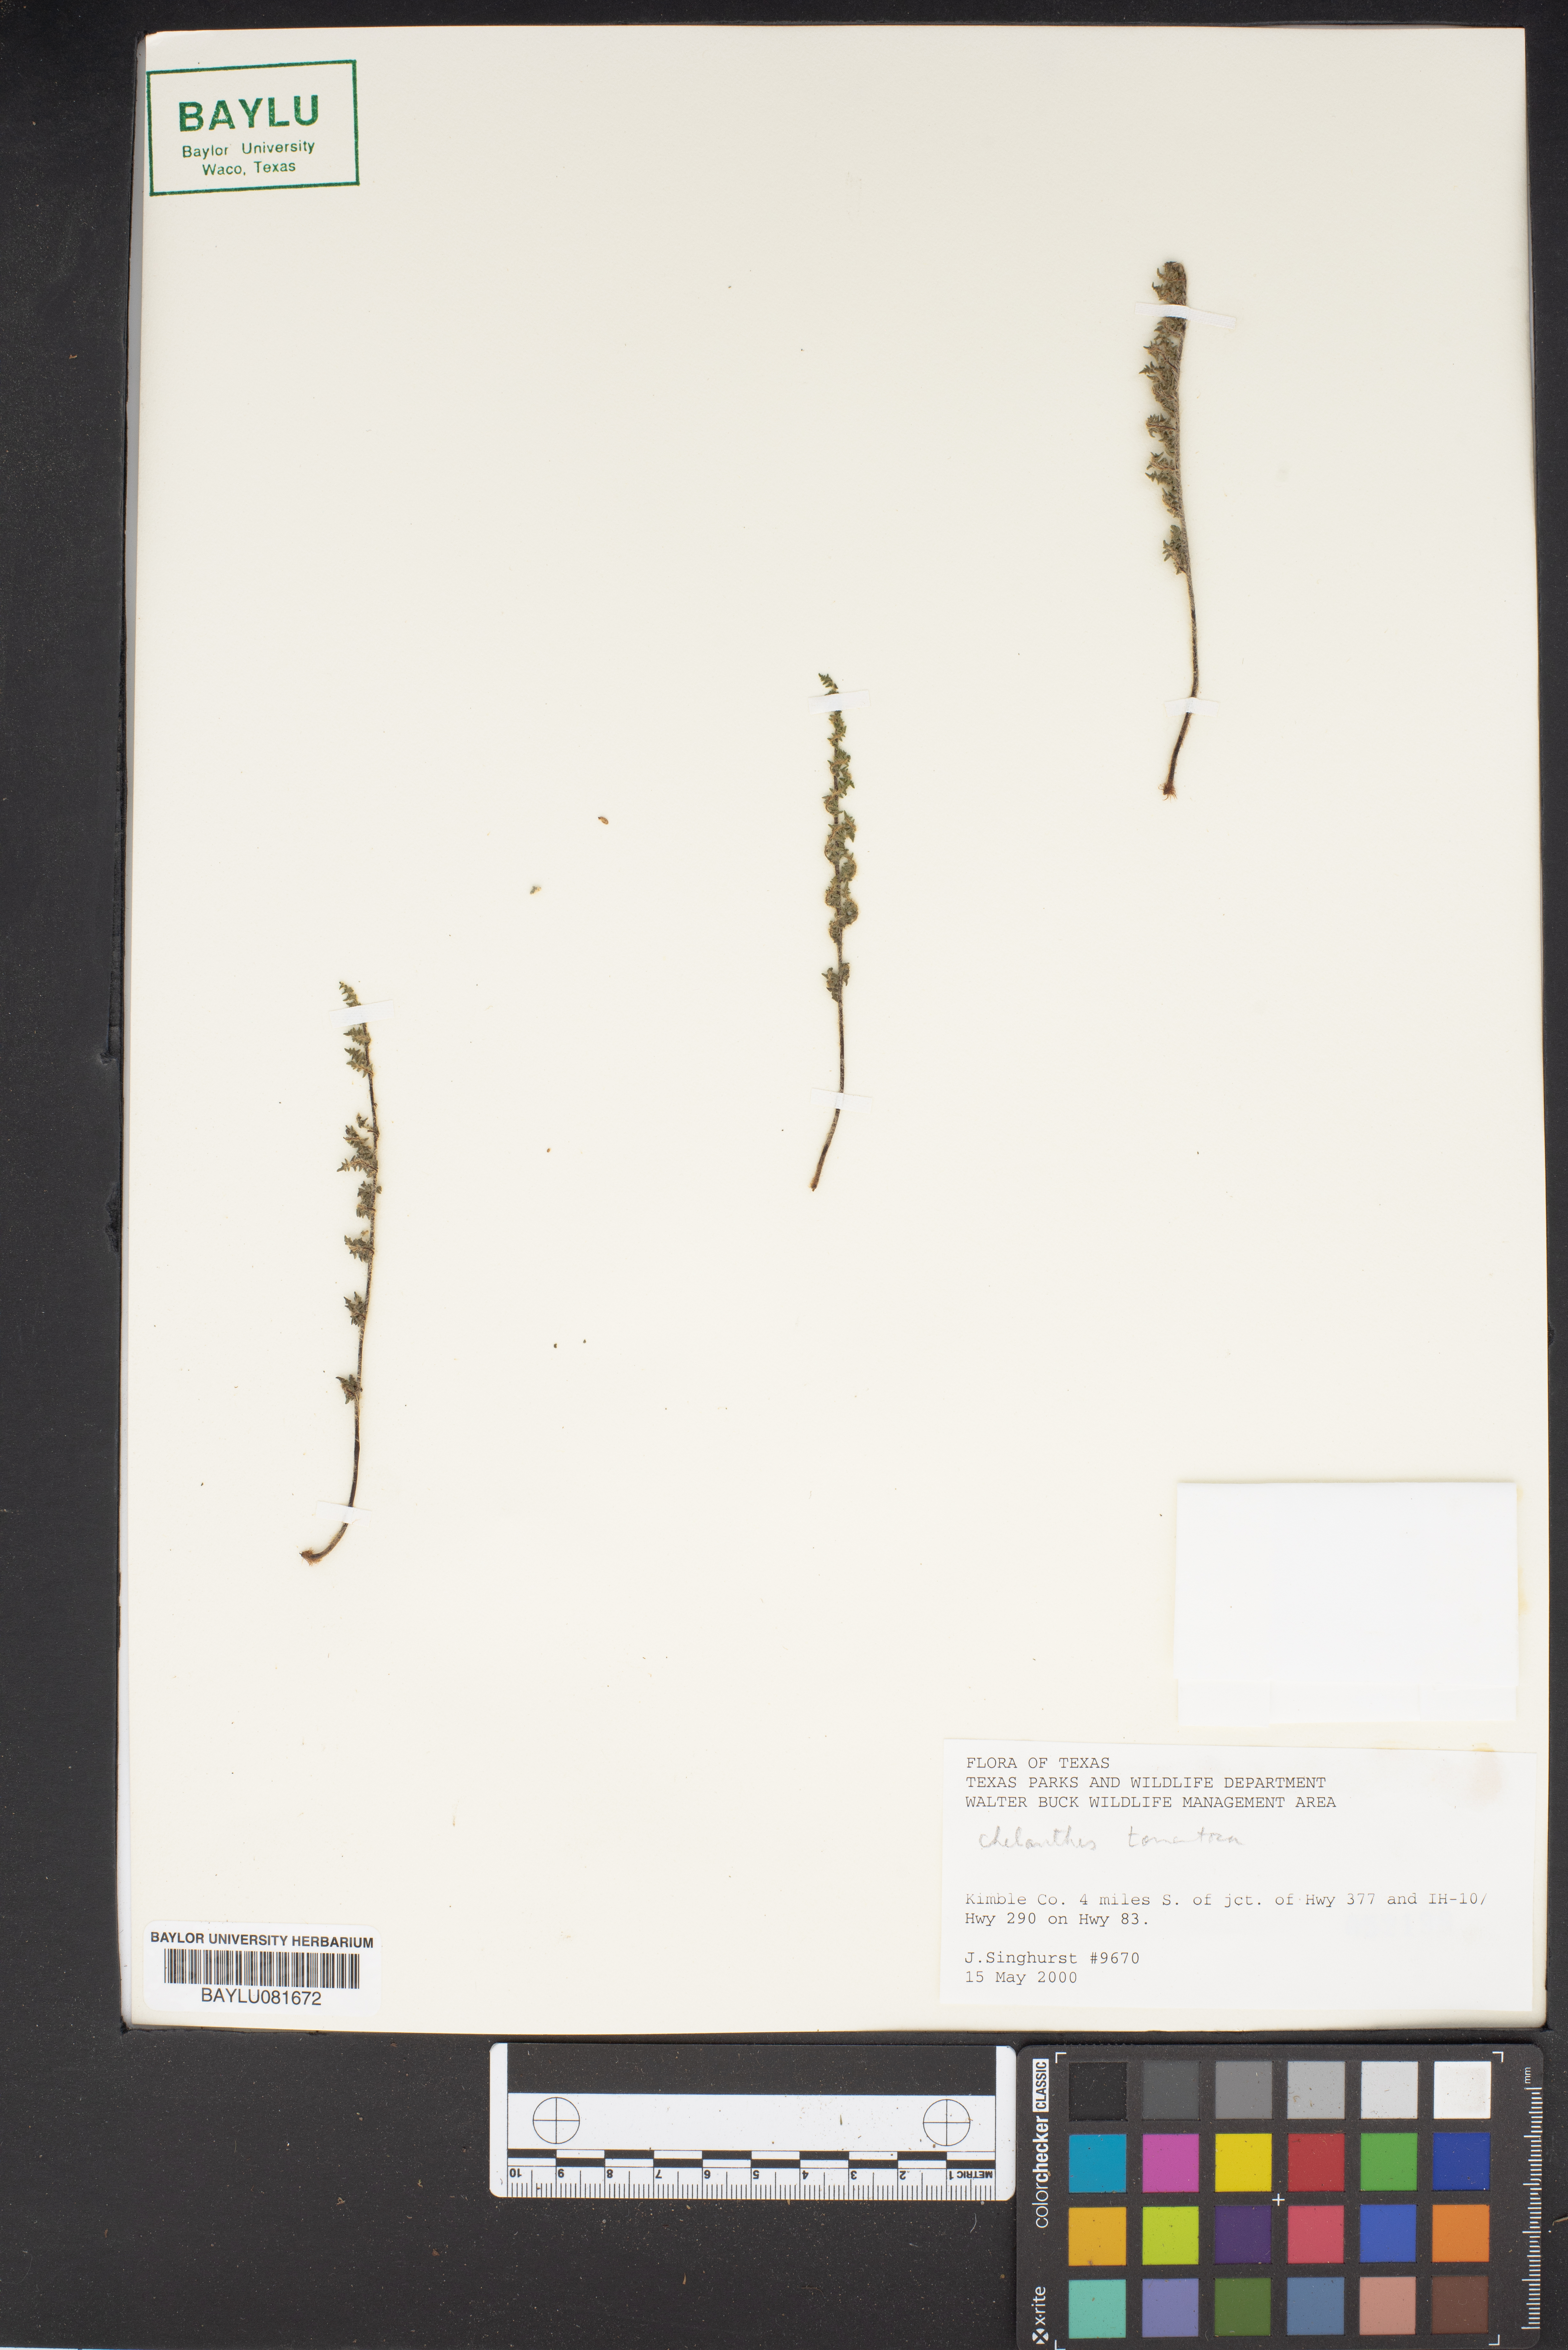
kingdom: Plantae
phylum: Tracheophyta
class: Polypodiopsida
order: Polypodiales
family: Pteridaceae
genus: Cheilanthes
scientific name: Cheilanthes
